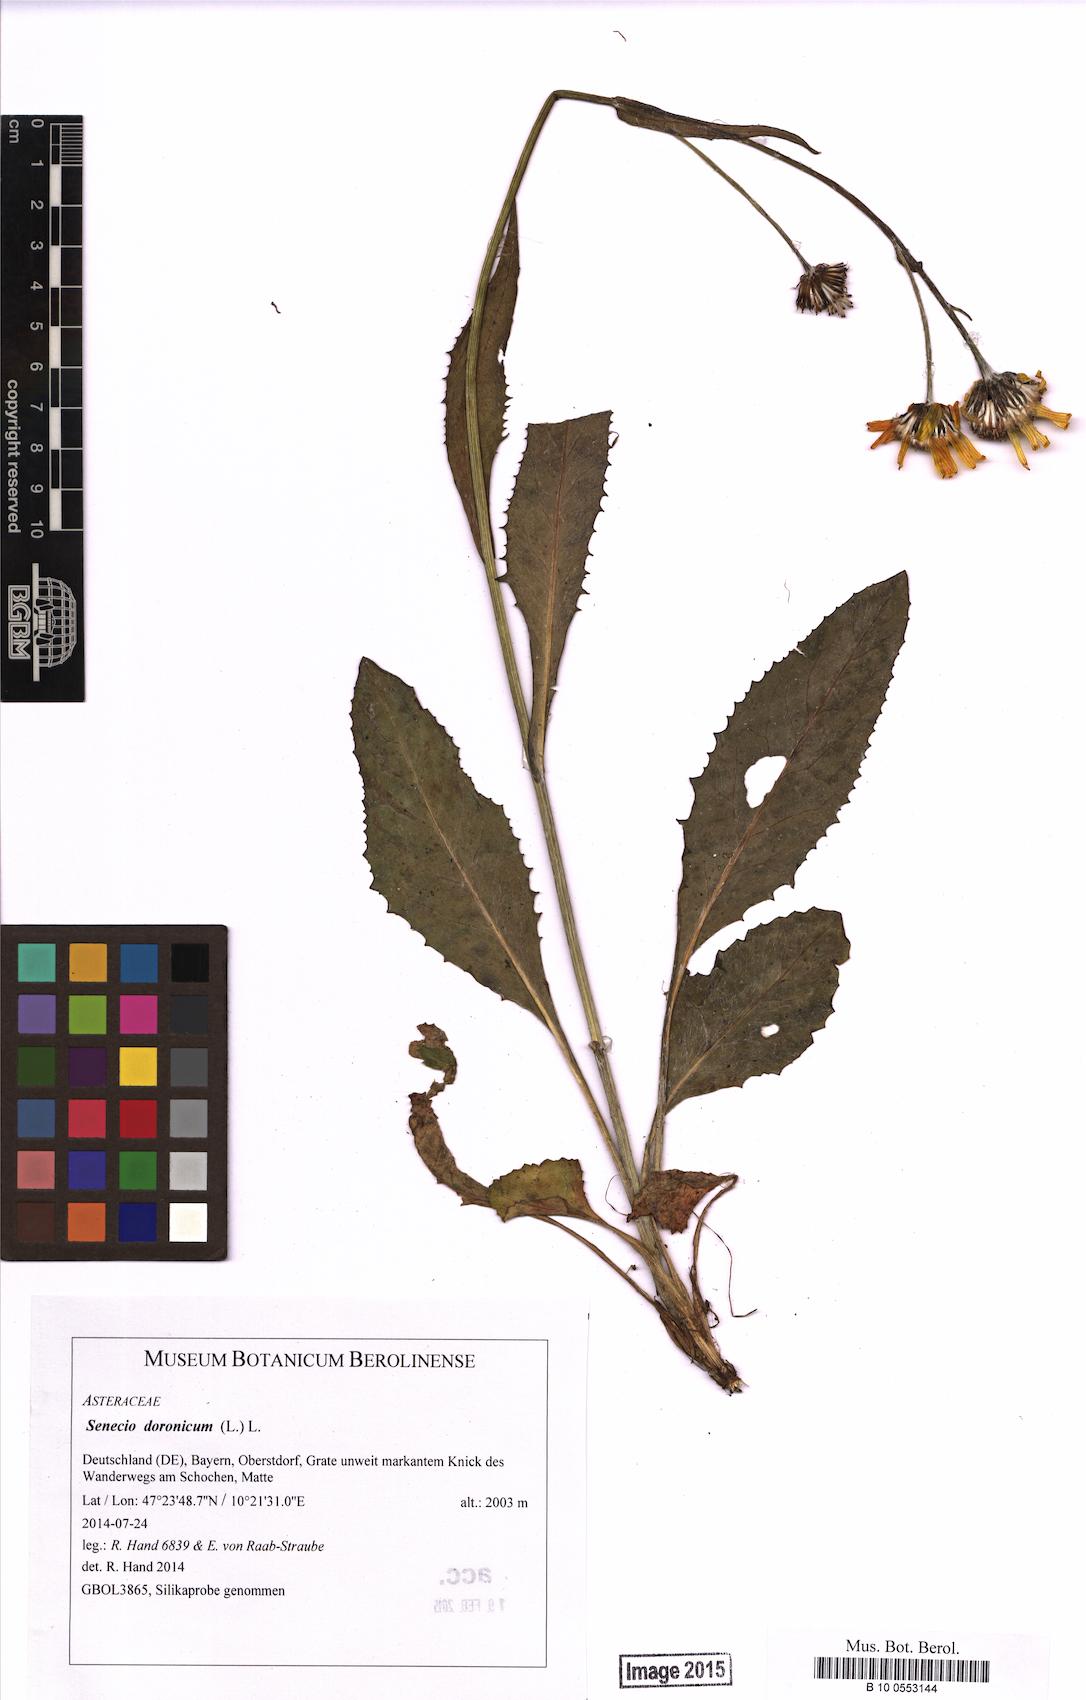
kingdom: Plantae
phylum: Tracheophyta
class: Magnoliopsida
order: Asterales
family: Asteraceae
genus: Senecio
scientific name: Senecio doronicum
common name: Chamois ragwort
